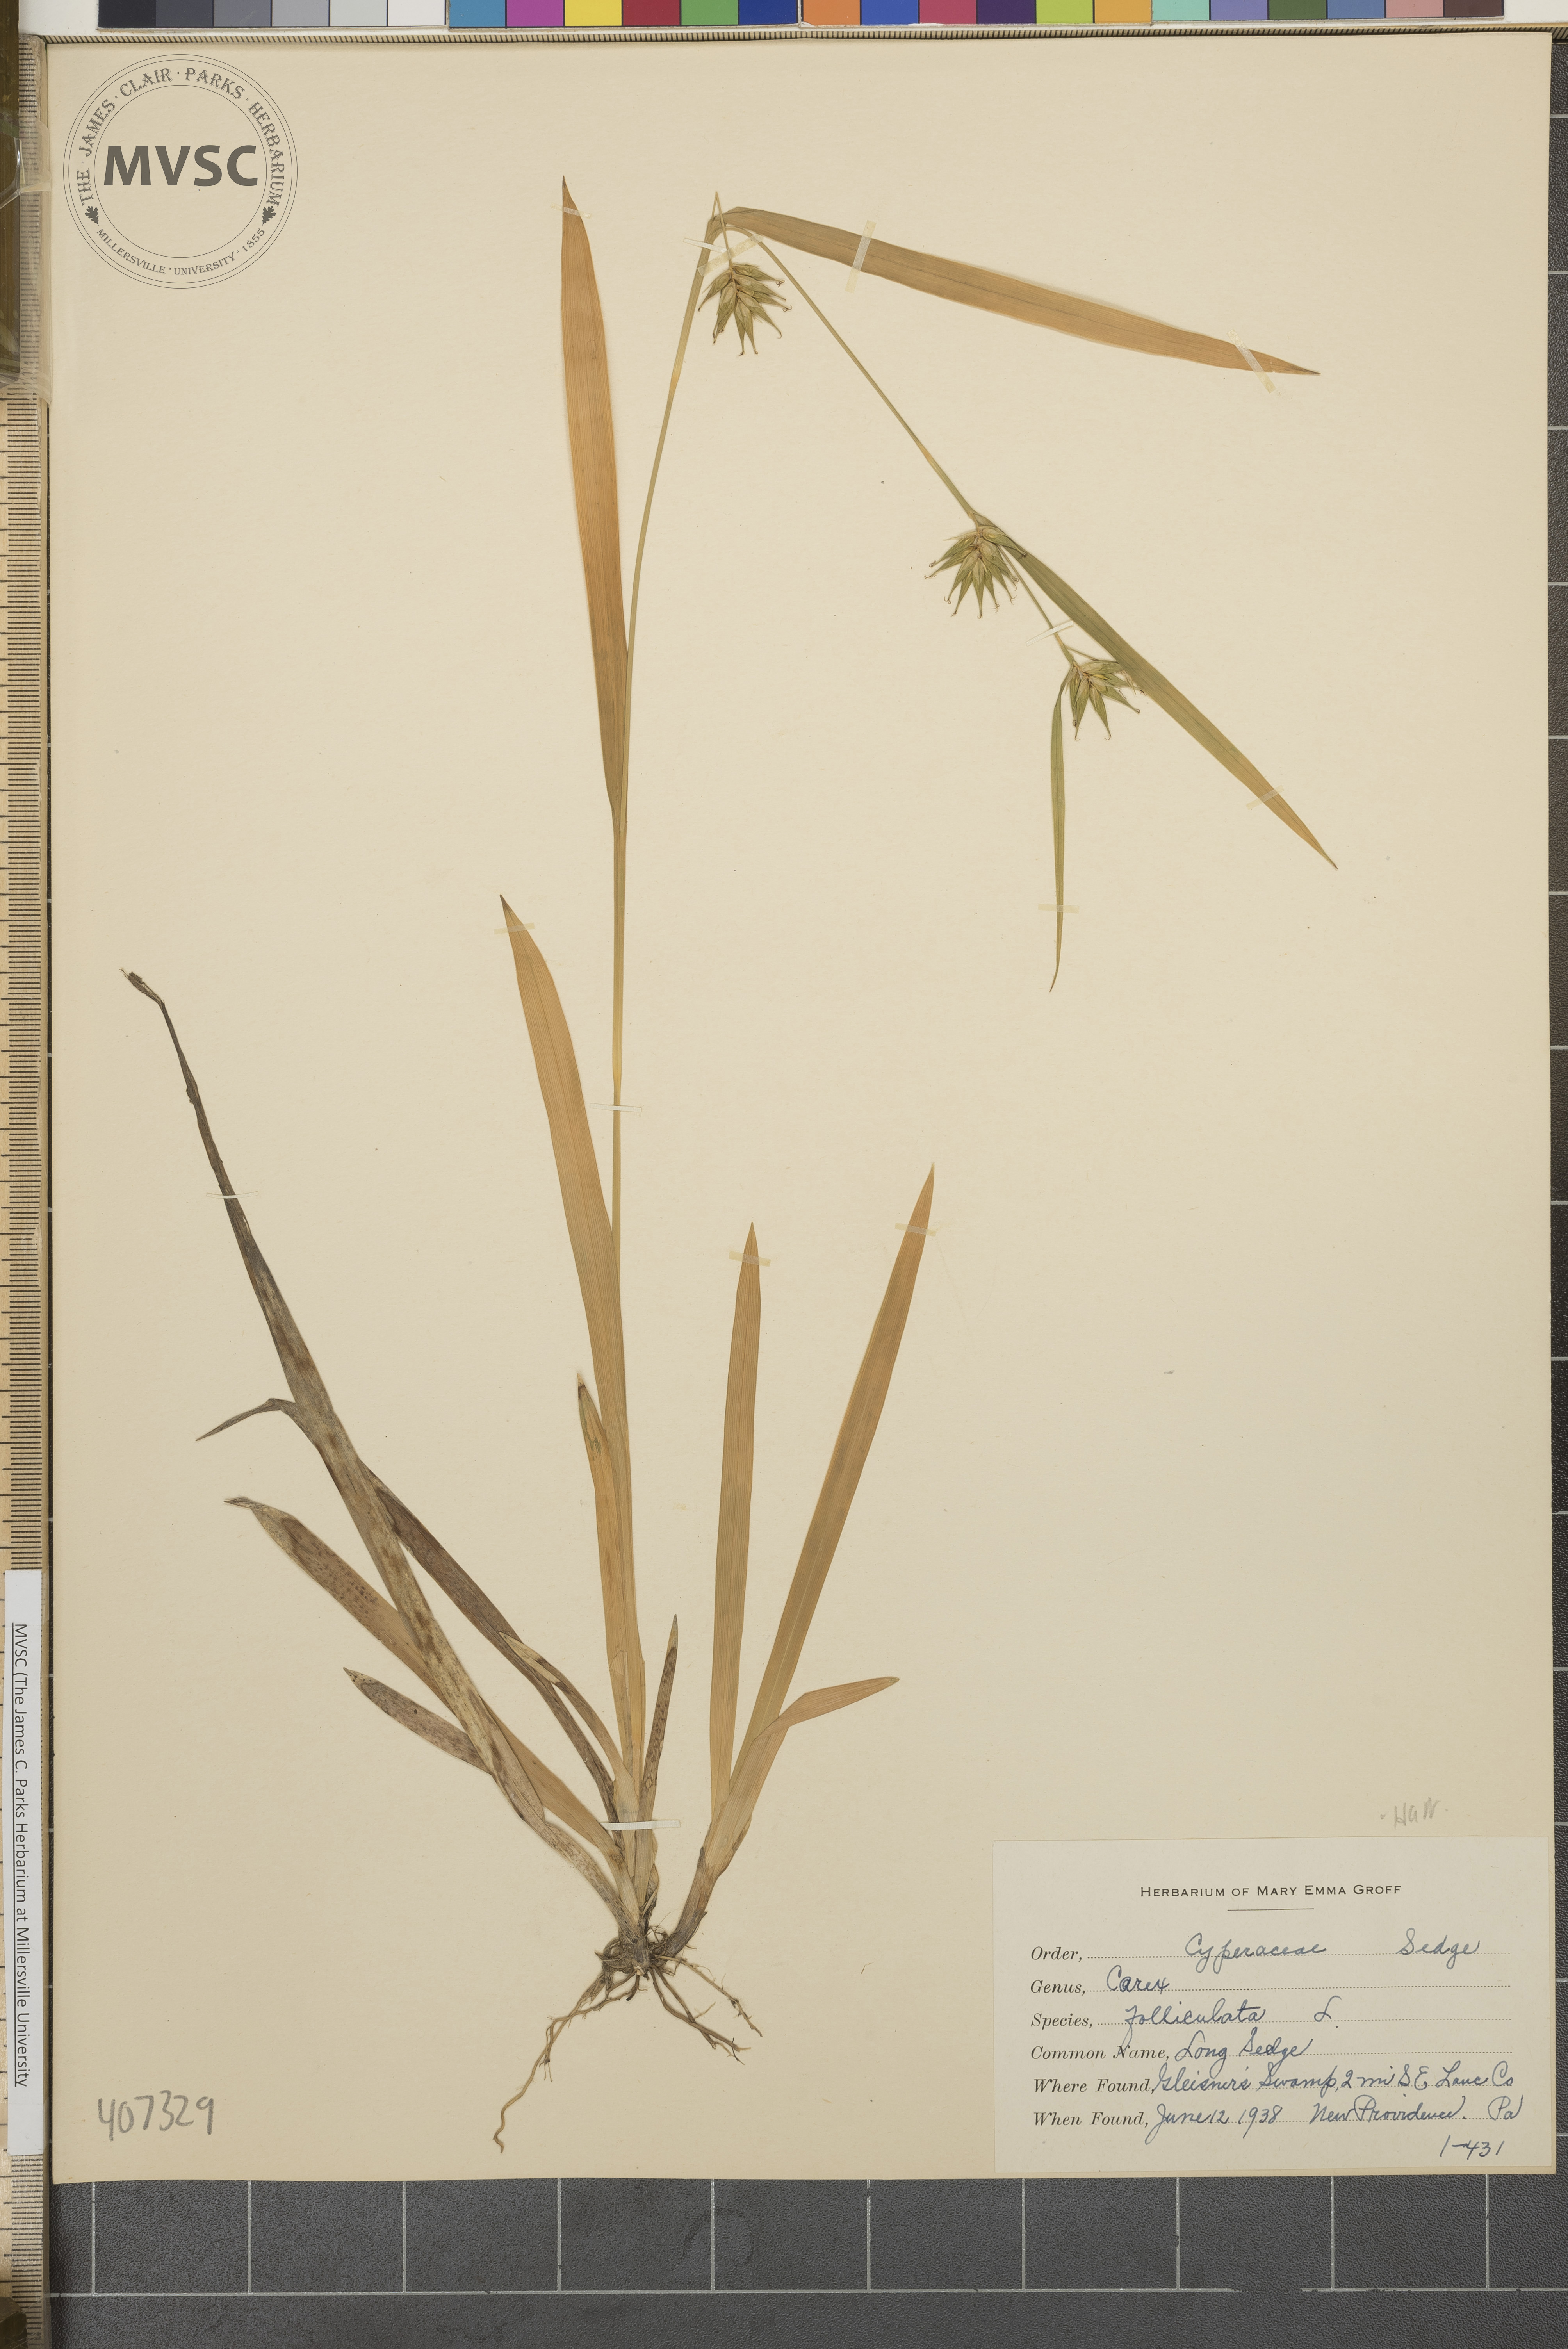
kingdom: Plantae
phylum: Tracheophyta
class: Liliopsida
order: Poales
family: Cyperaceae
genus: Carex
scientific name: Carex folliculata
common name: Long Sedge
